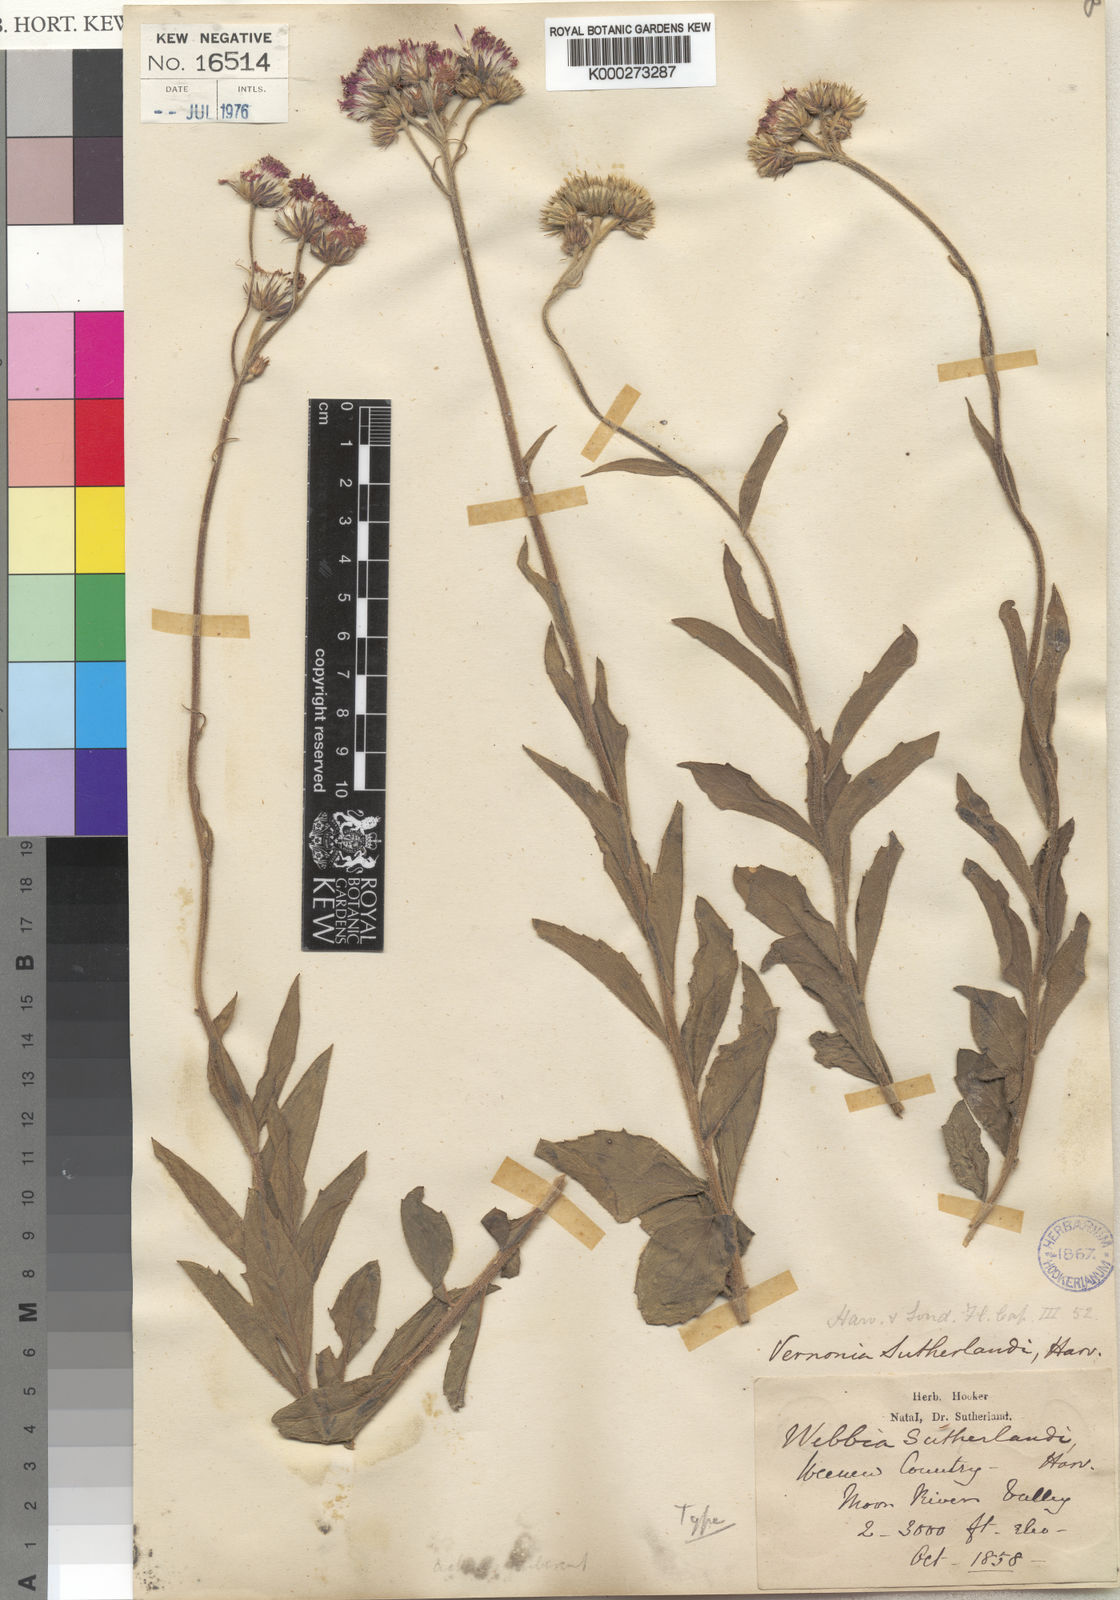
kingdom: Plantae
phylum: Tracheophyta
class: Magnoliopsida
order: Asterales
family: Asteraceae
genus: Hilliardiella
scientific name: Hilliardiella sutherlandii
